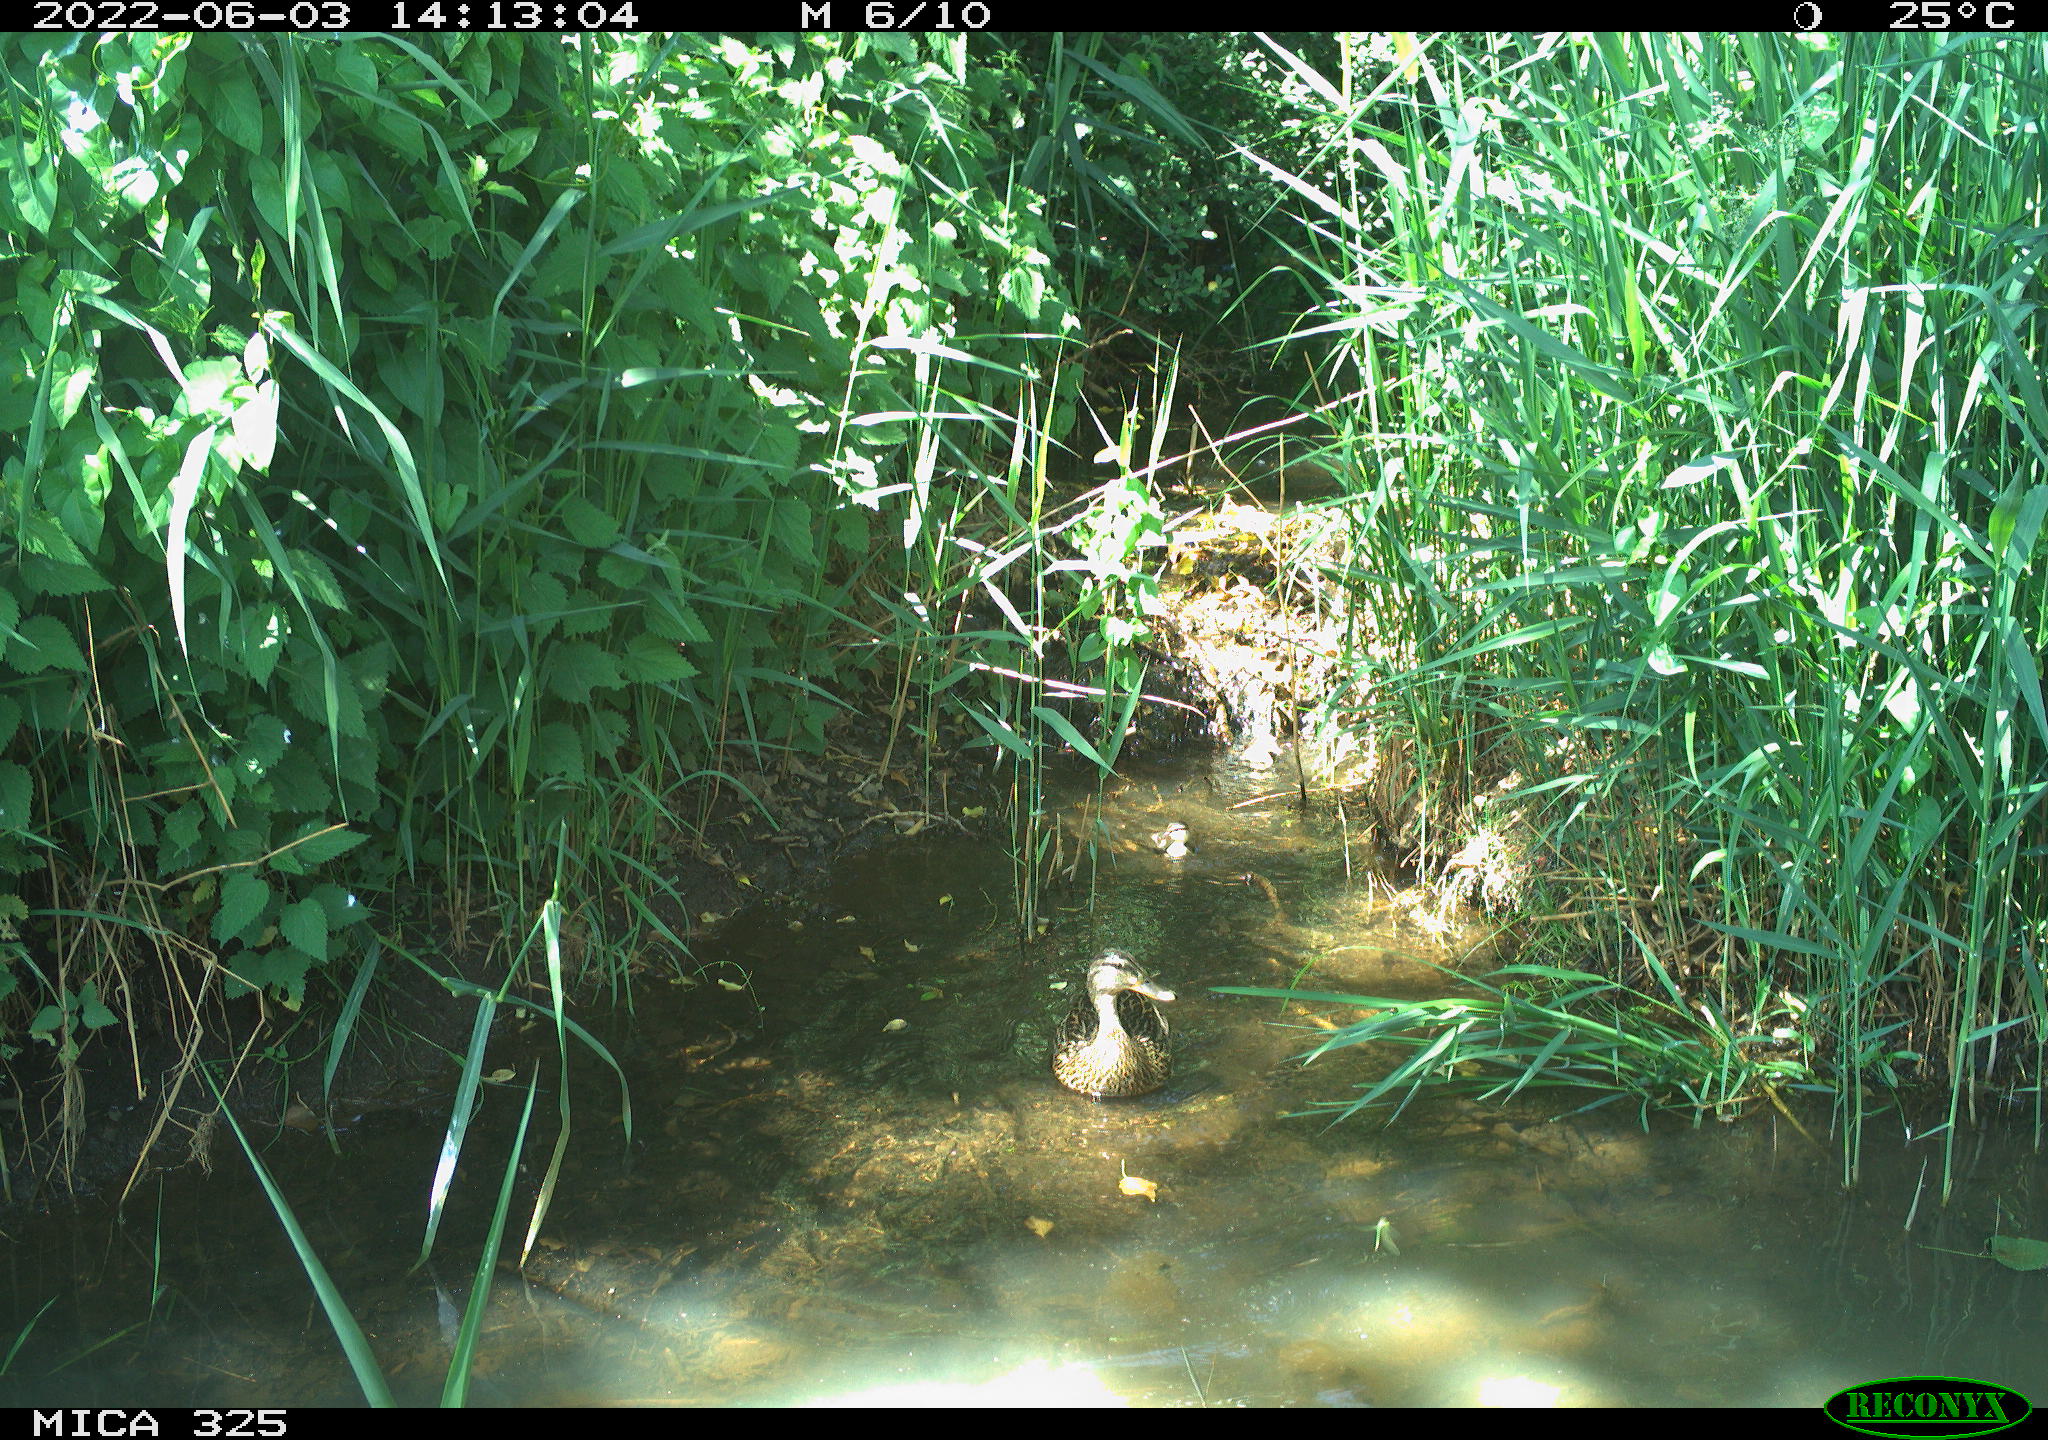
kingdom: Animalia
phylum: Chordata
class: Aves
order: Anseriformes
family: Anatidae
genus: Anas
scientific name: Anas platyrhynchos
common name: Mallard
